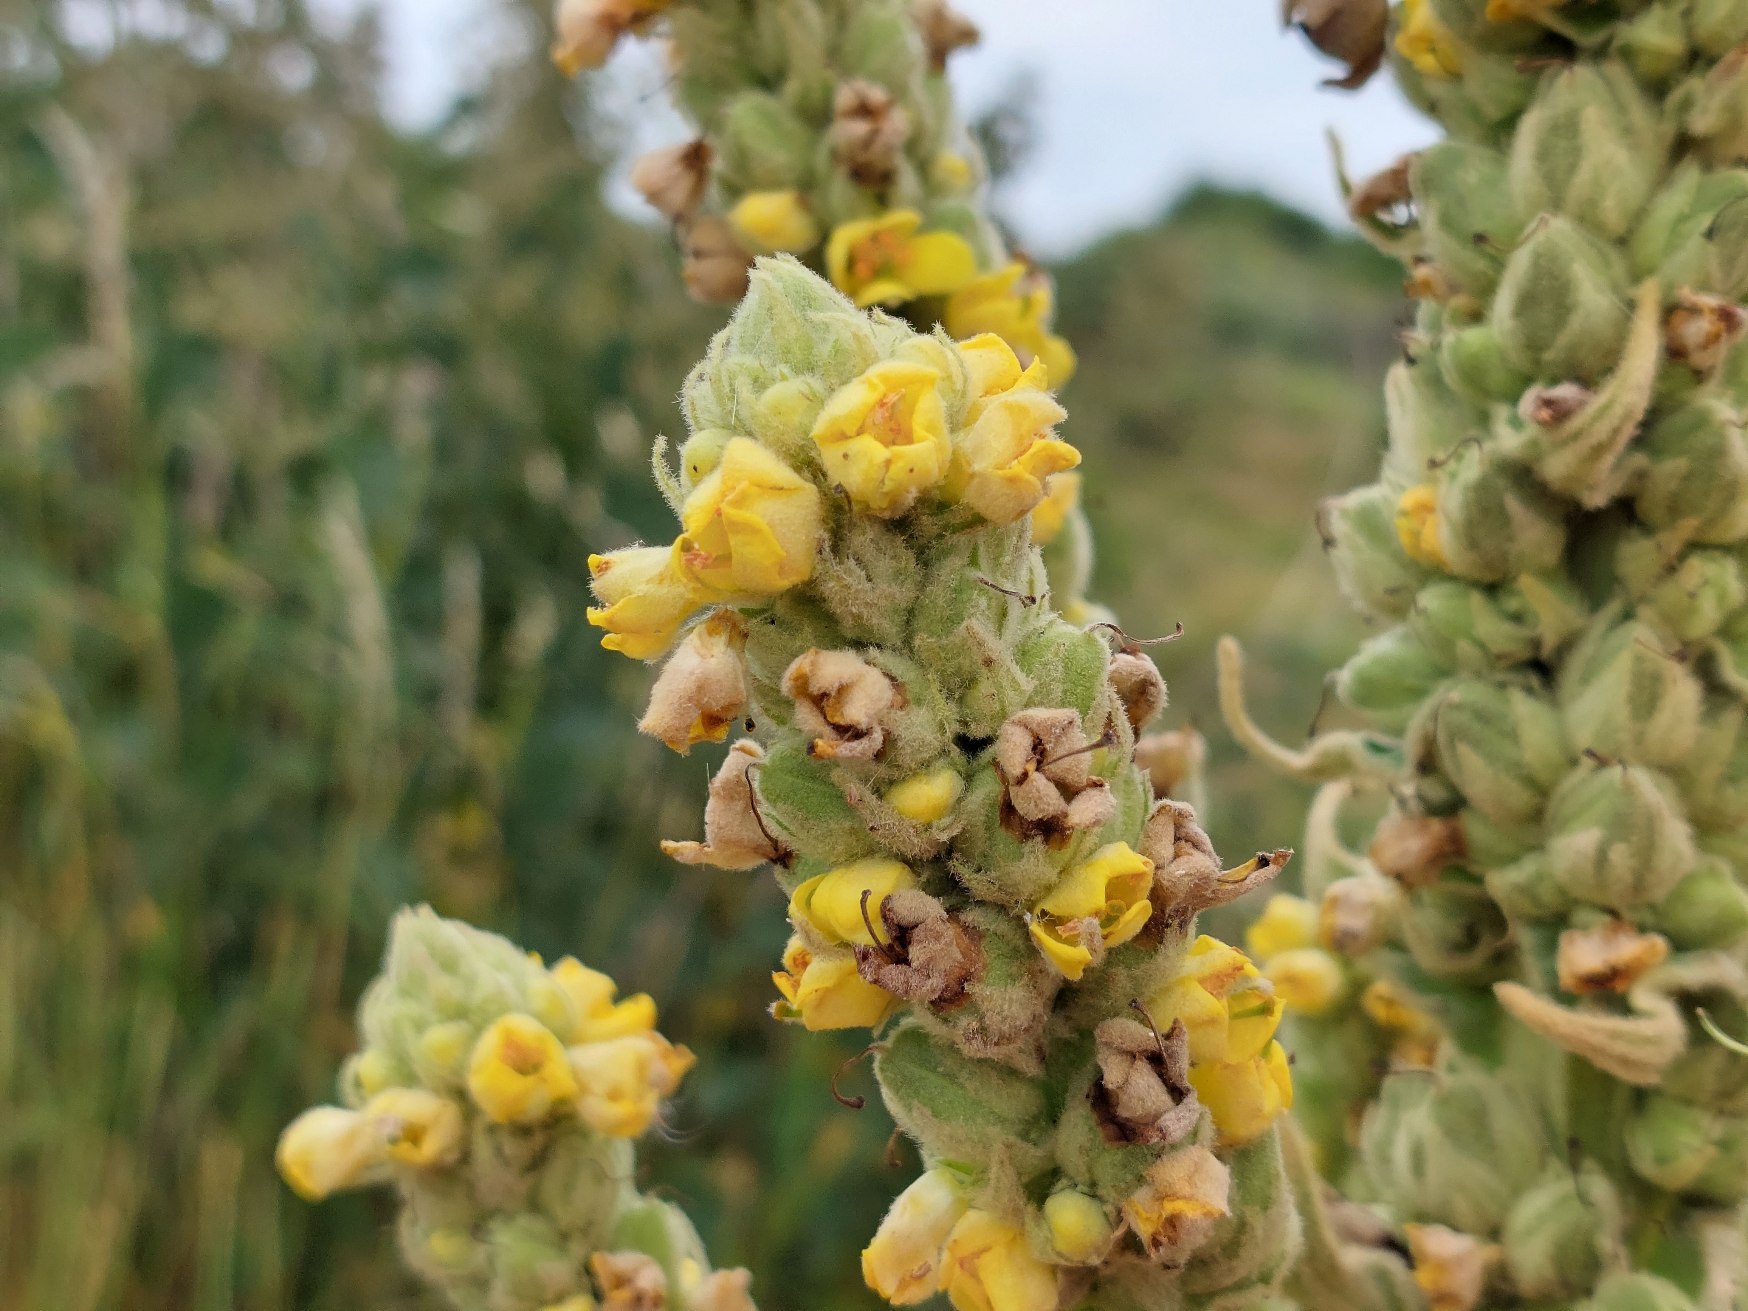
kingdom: Plantae
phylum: Tracheophyta
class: Magnoliopsida
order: Lamiales
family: Scrophulariaceae
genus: Verbascum
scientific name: Verbascum speciosum
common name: Kandelaber-kongelys
